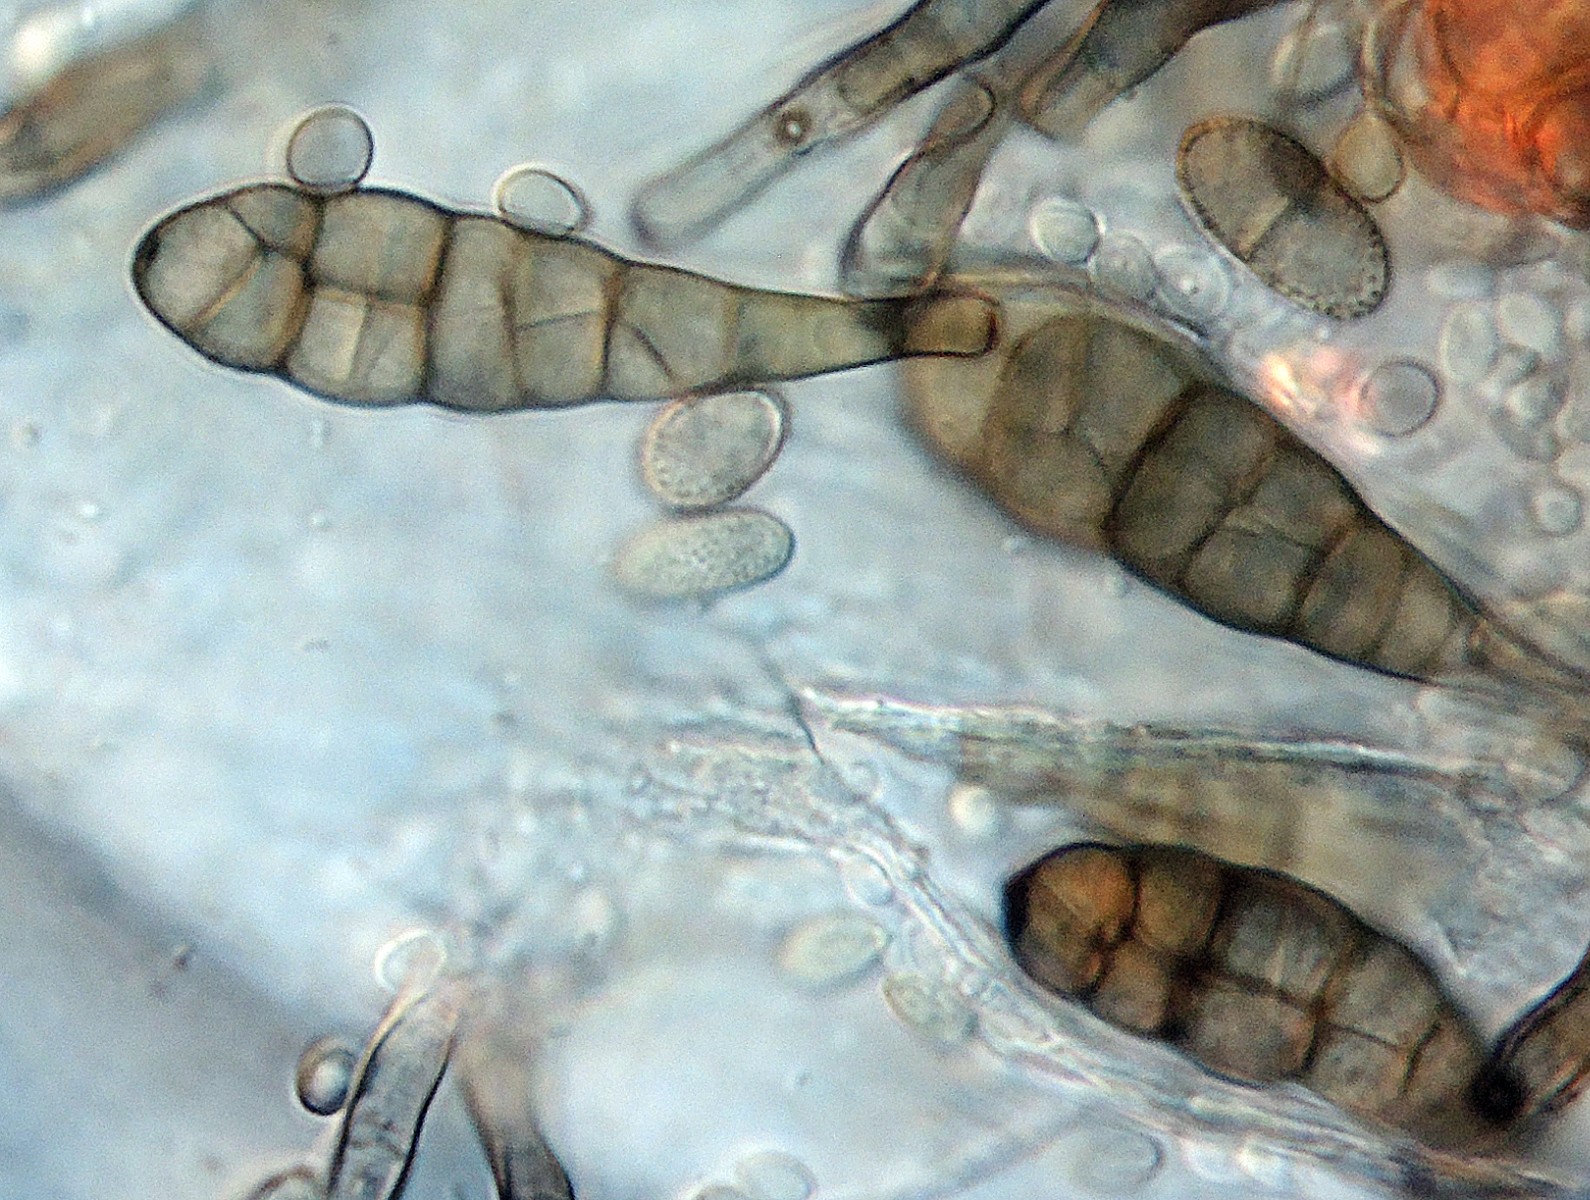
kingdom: Fungi
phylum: Ascomycota
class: Dothideomycetes
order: Pleosporales
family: Pleosporaceae
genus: Alternaria
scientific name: Alternaria tenuissima
